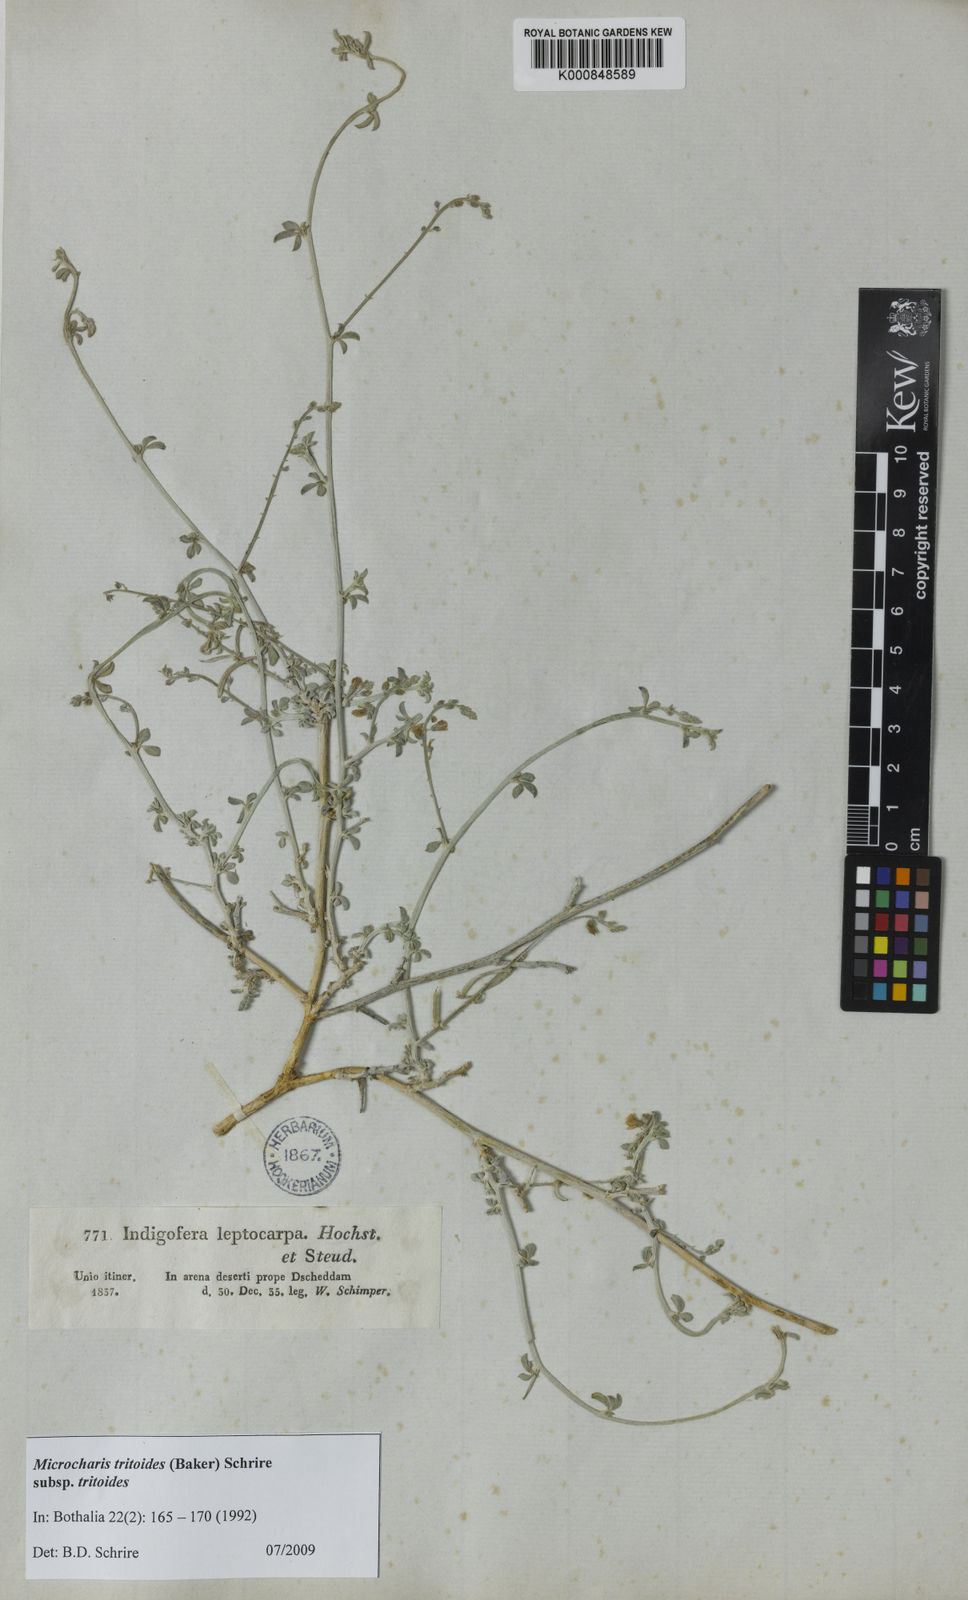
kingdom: Plantae
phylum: Tracheophyta
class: Magnoliopsida
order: Fabales
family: Fabaceae
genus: Microcharis
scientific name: Microcharis tritoides
